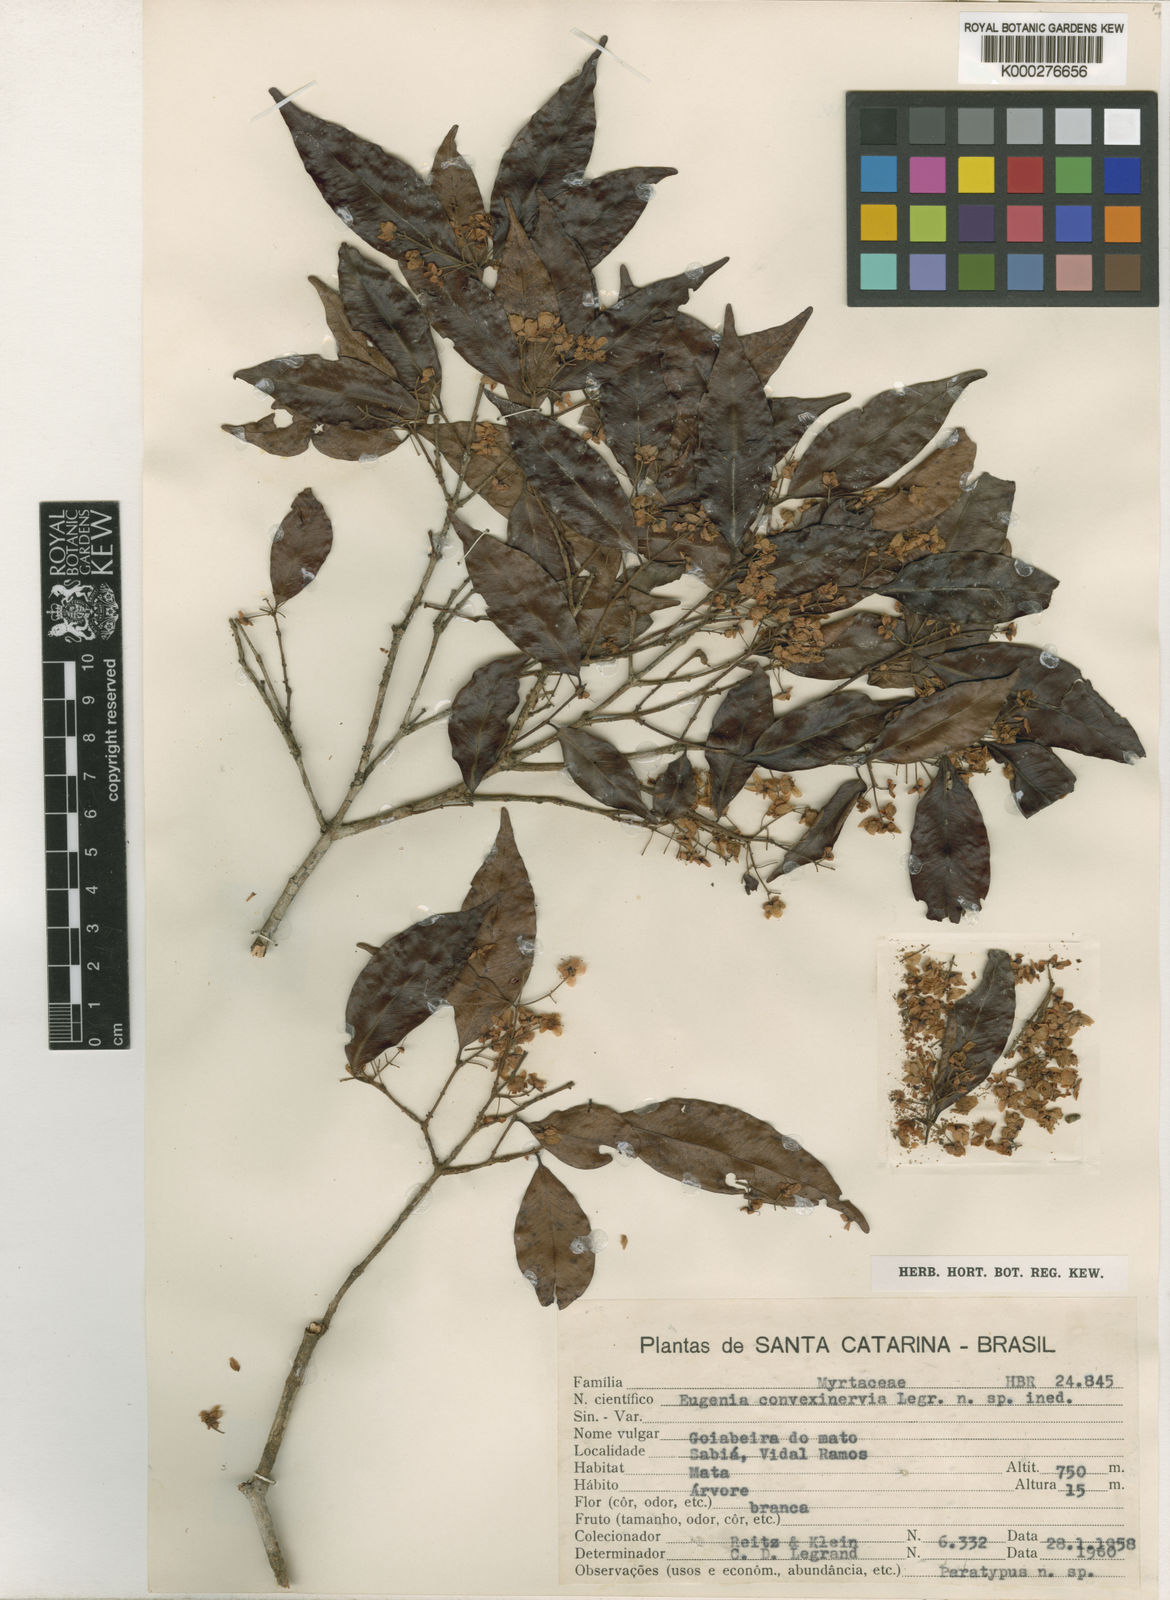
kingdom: Plantae
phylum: Tracheophyta
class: Magnoliopsida
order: Myrtales
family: Myrtaceae
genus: Eugenia
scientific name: Eugenia convexinervia
